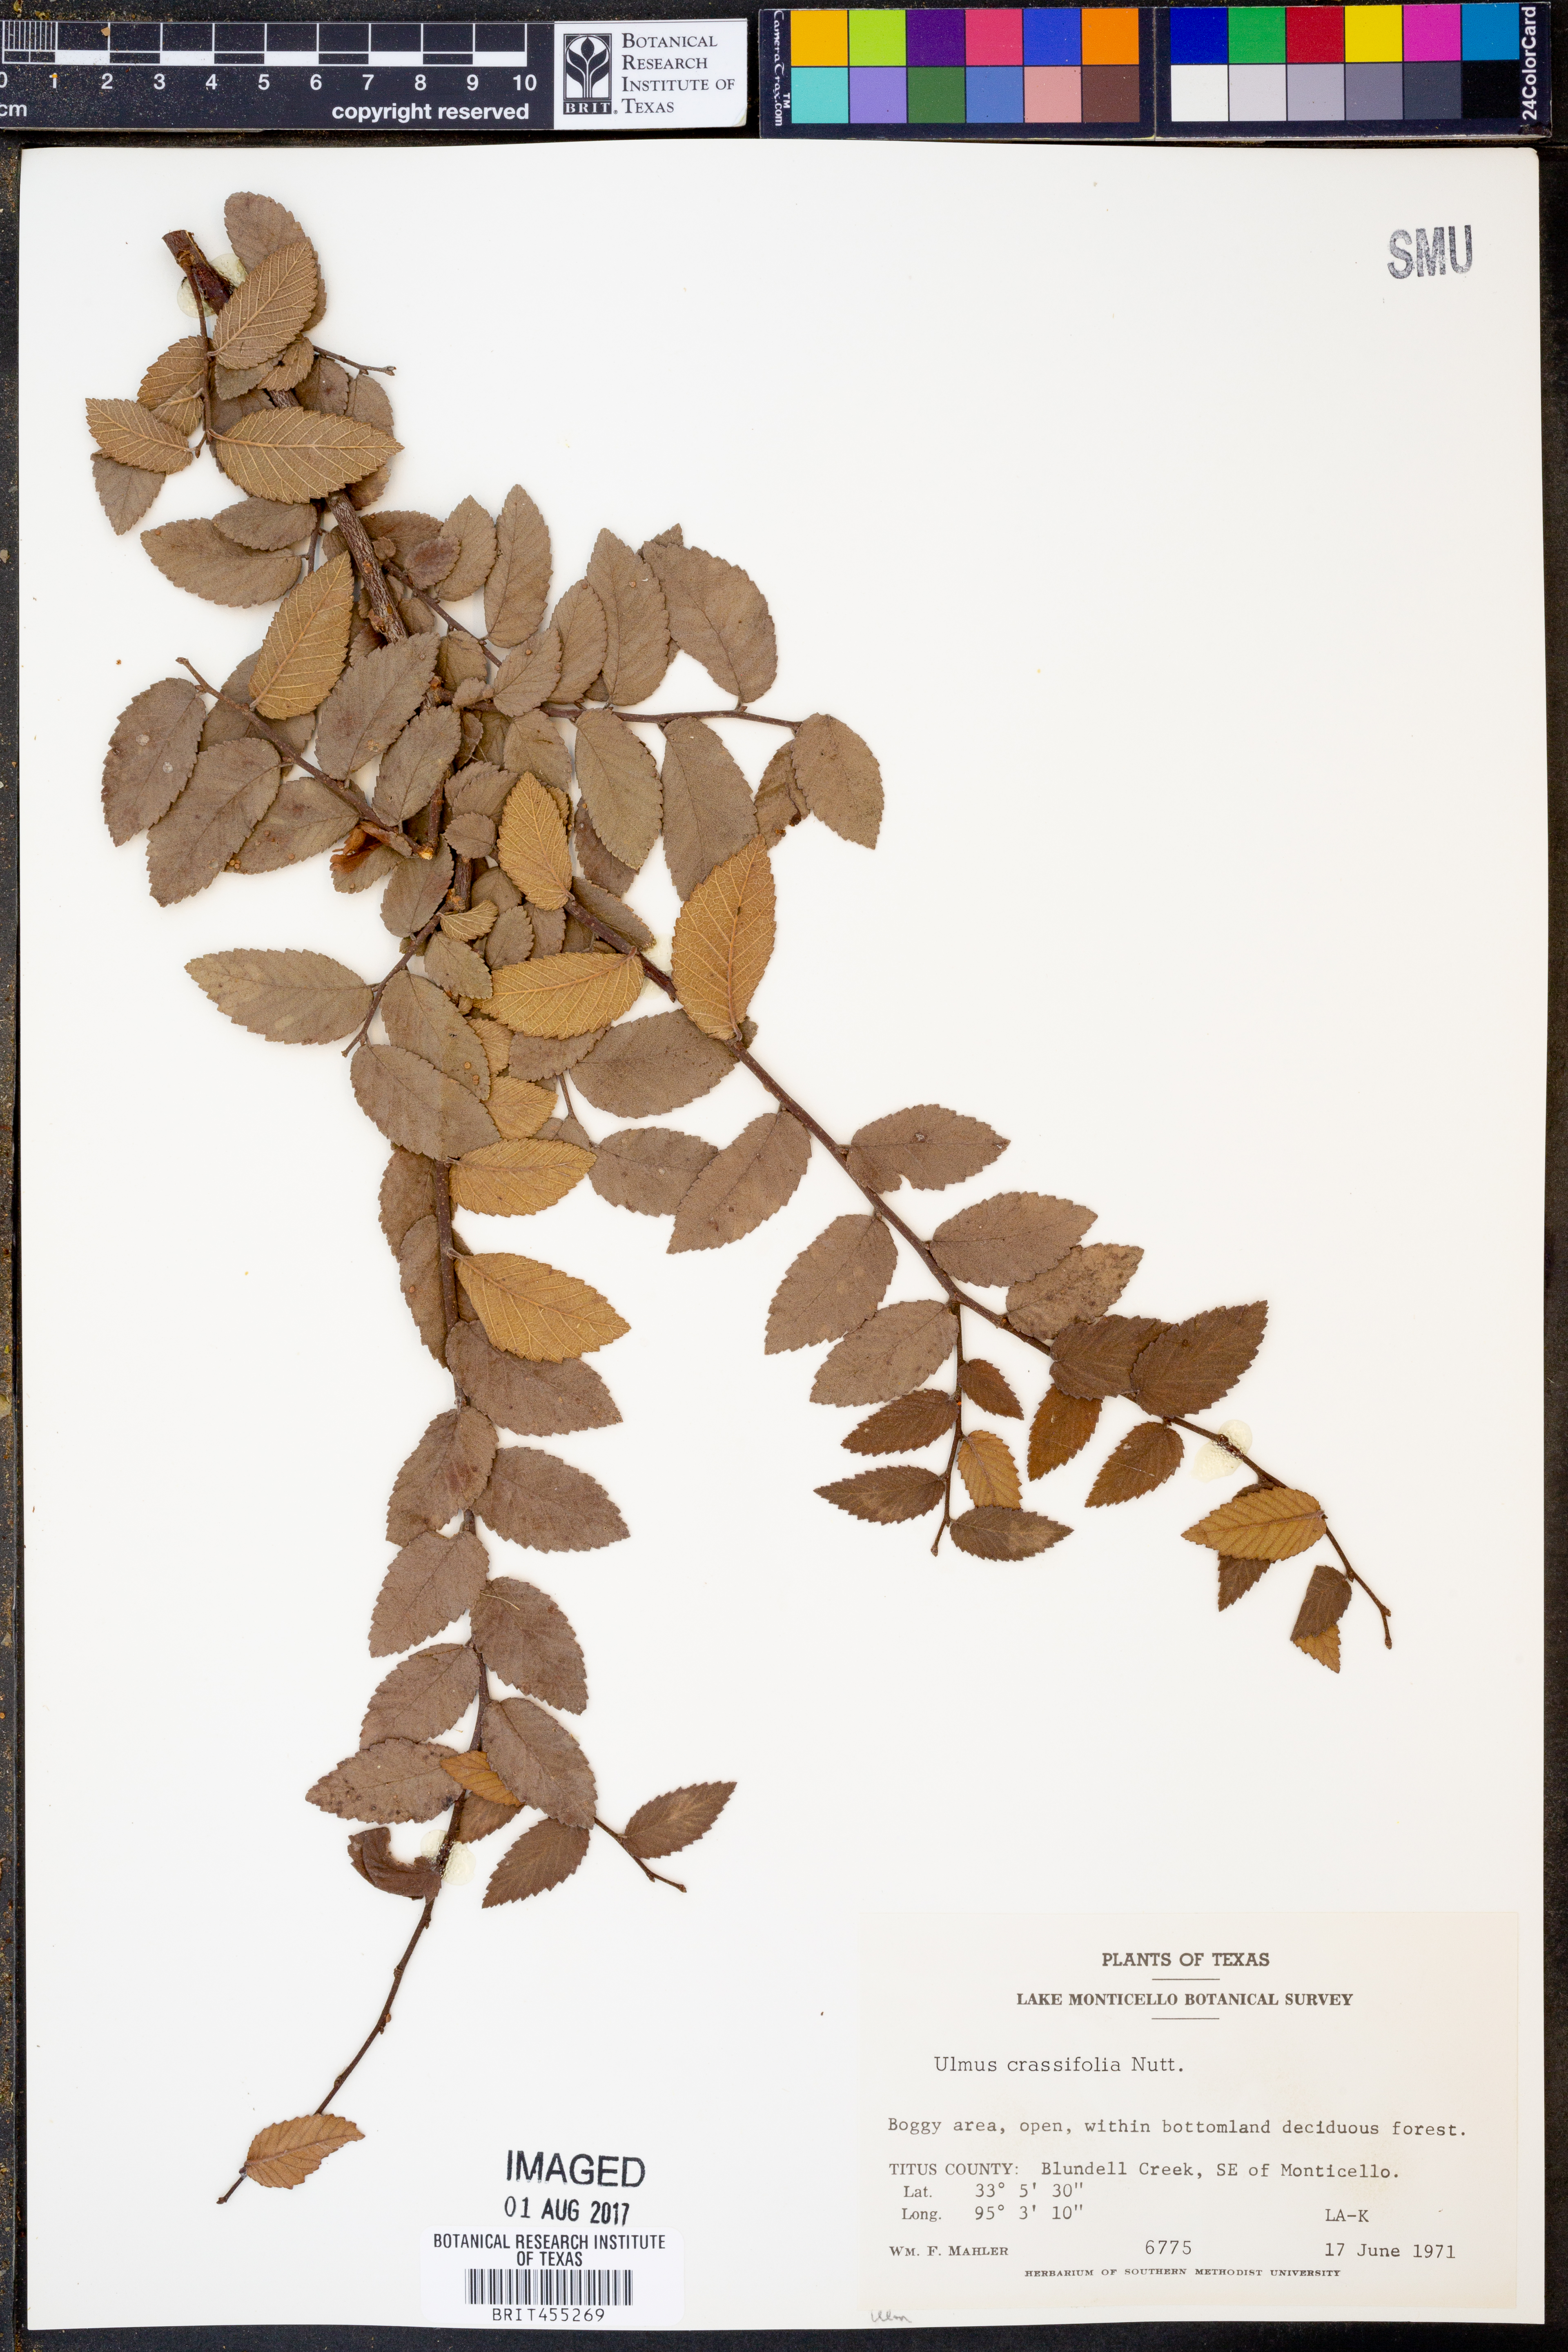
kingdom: Plantae
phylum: Tracheophyta
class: Magnoliopsida
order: Rosales
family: Ulmaceae
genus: Ulmus
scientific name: Ulmus crassifolia
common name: Basket elm
